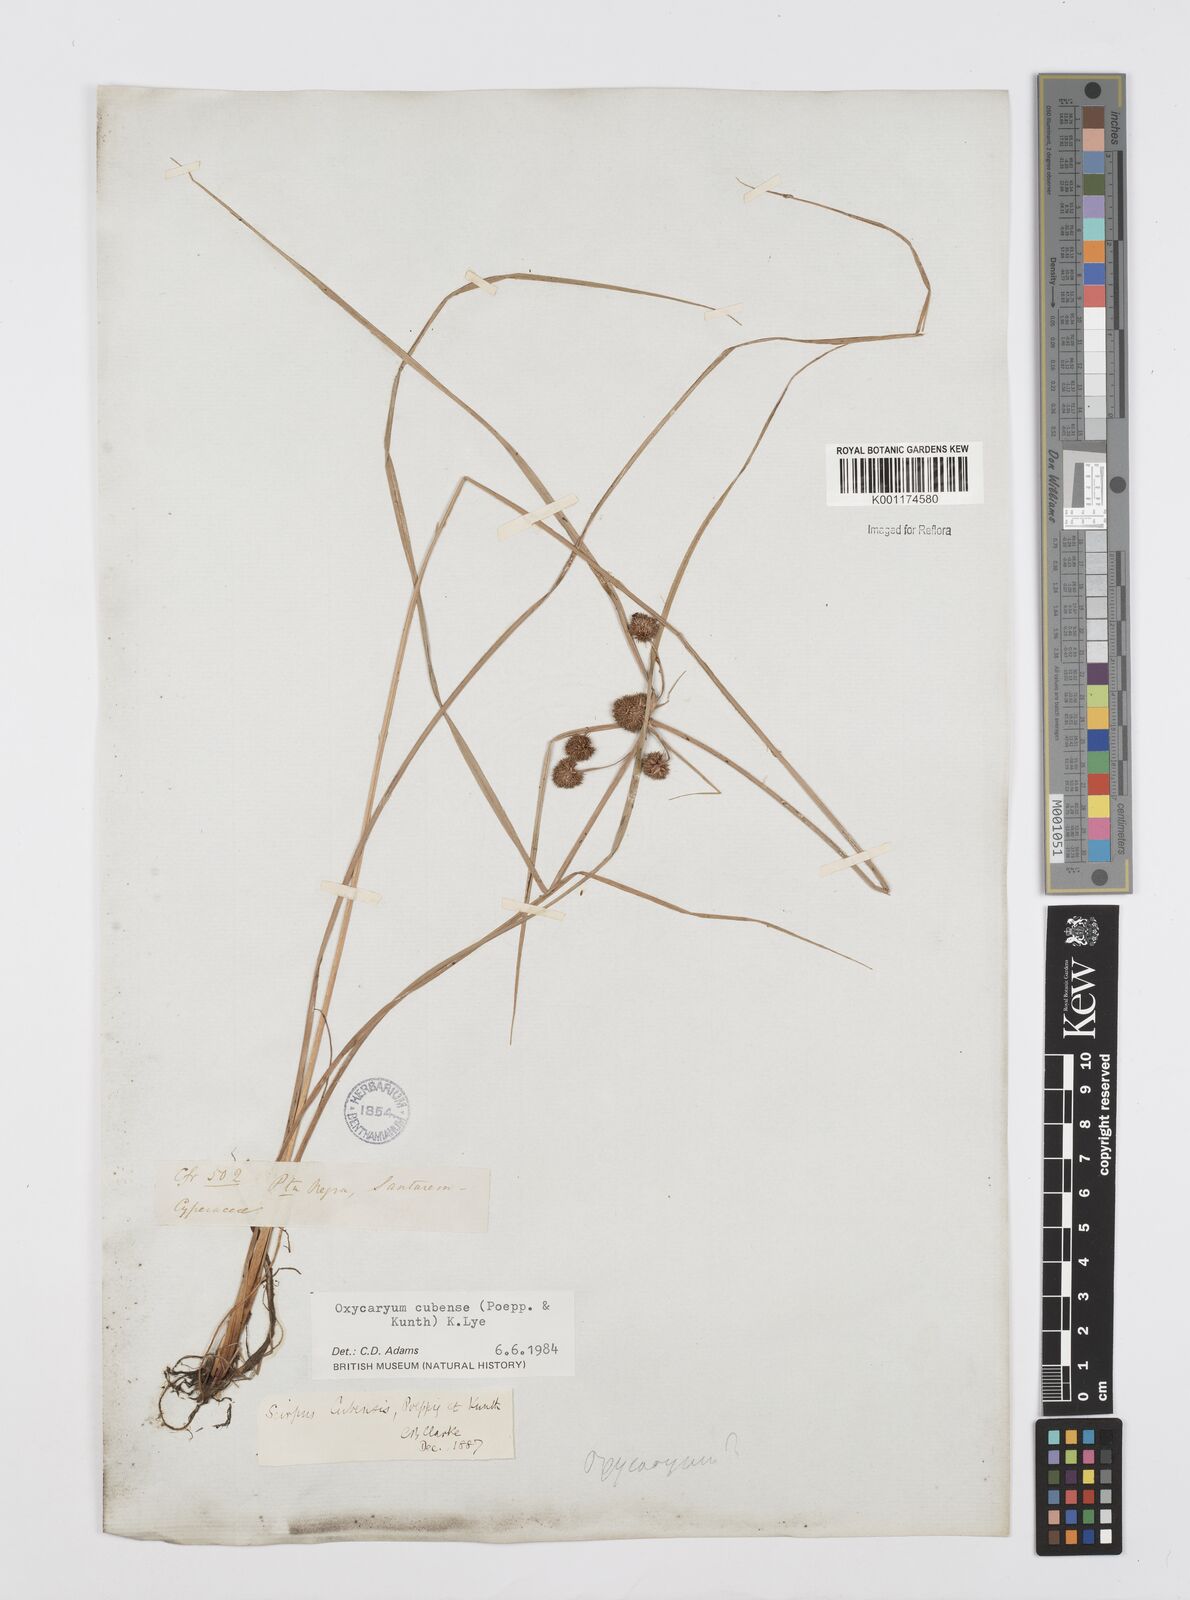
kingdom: Plantae
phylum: Tracheophyta
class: Liliopsida
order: Poales
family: Cyperaceae
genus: Cyperus
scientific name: Cyperus elegans
